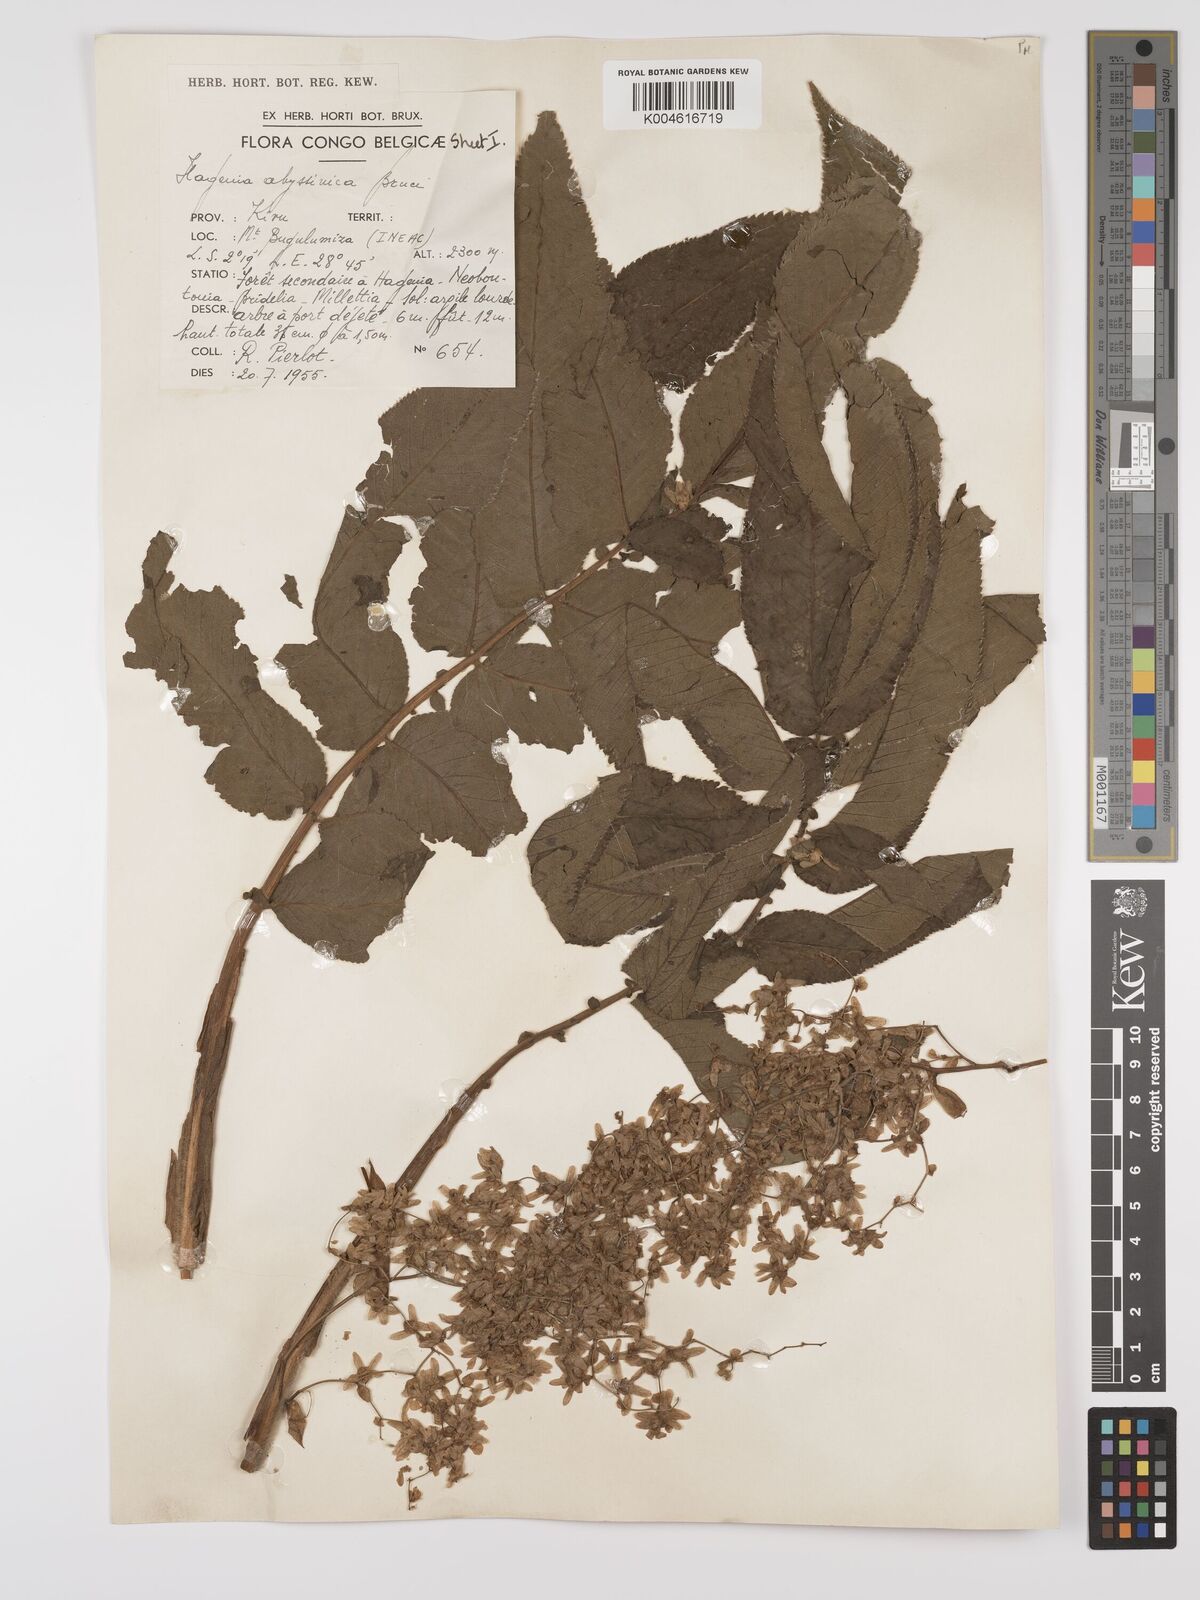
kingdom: Plantae
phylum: Tracheophyta
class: Magnoliopsida
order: Rosales
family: Rosaceae
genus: Hagenia
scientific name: Hagenia abyssinica
